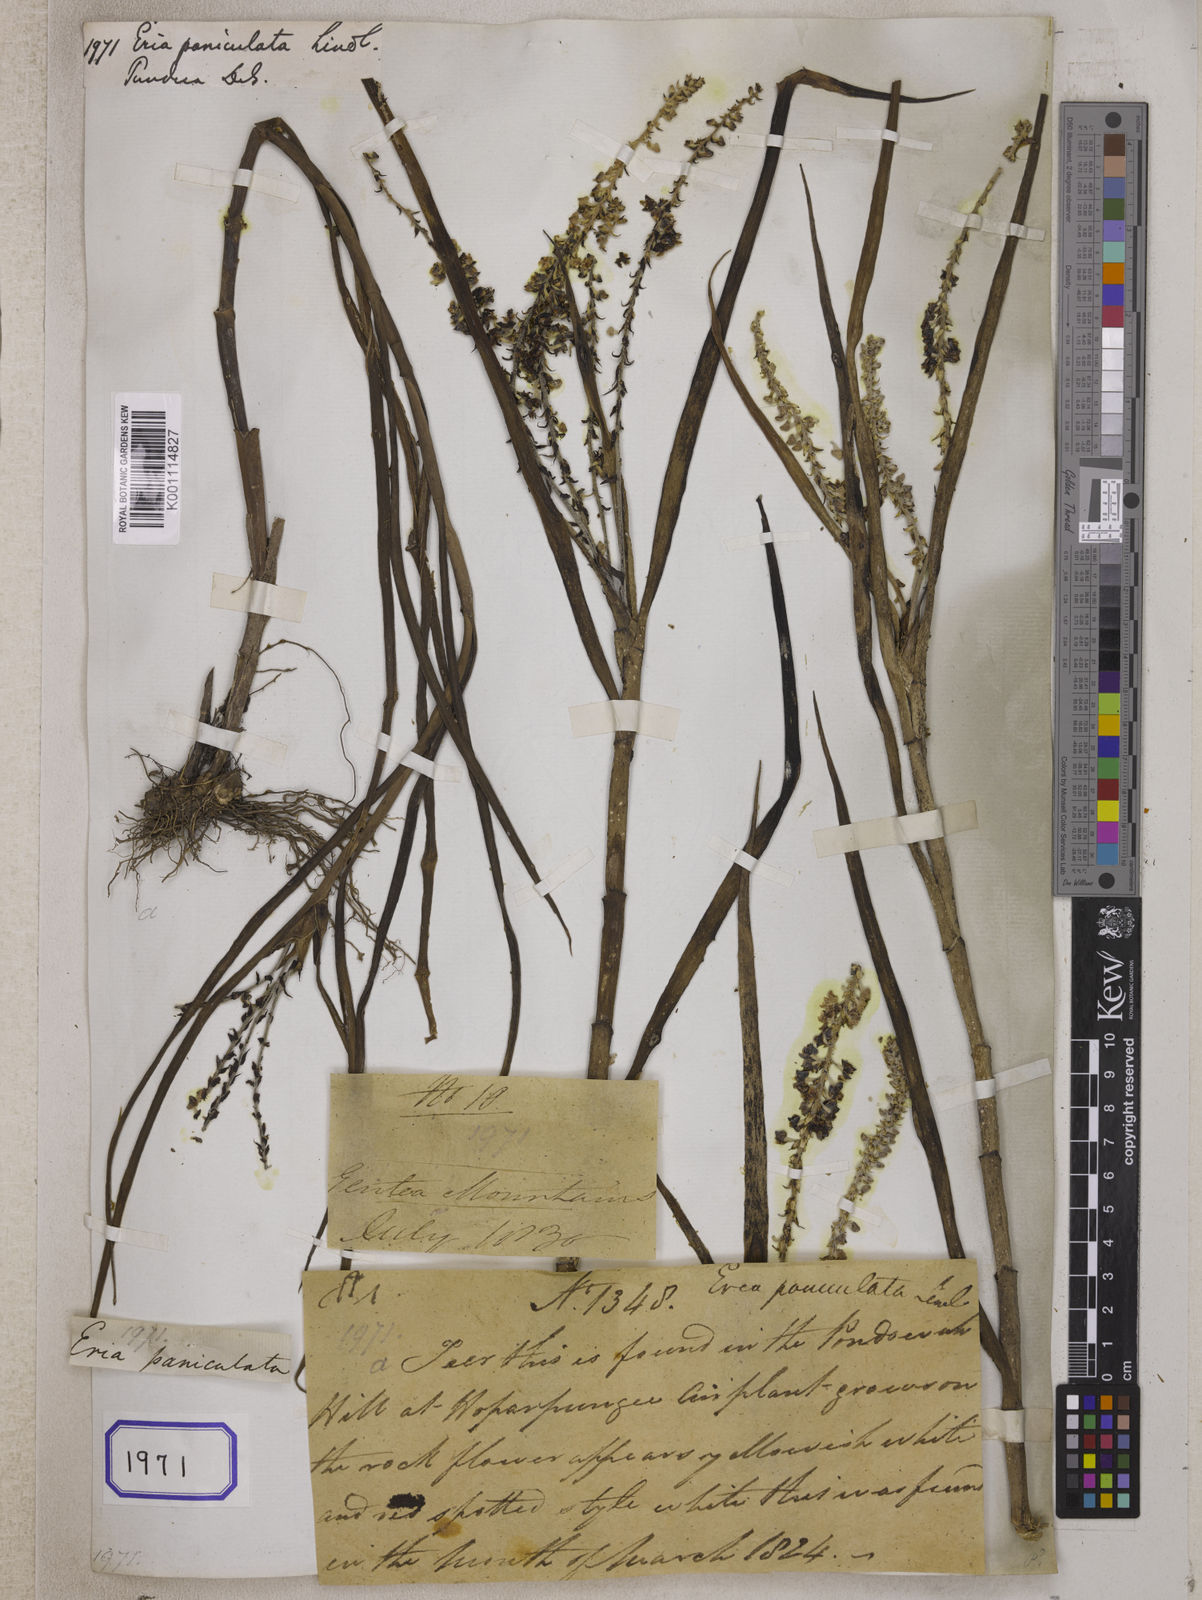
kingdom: Plantae
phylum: Tracheophyta
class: Liliopsida
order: Asparagales
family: Orchidaceae
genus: Mycaranthes
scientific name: Mycaranthes floribunda
